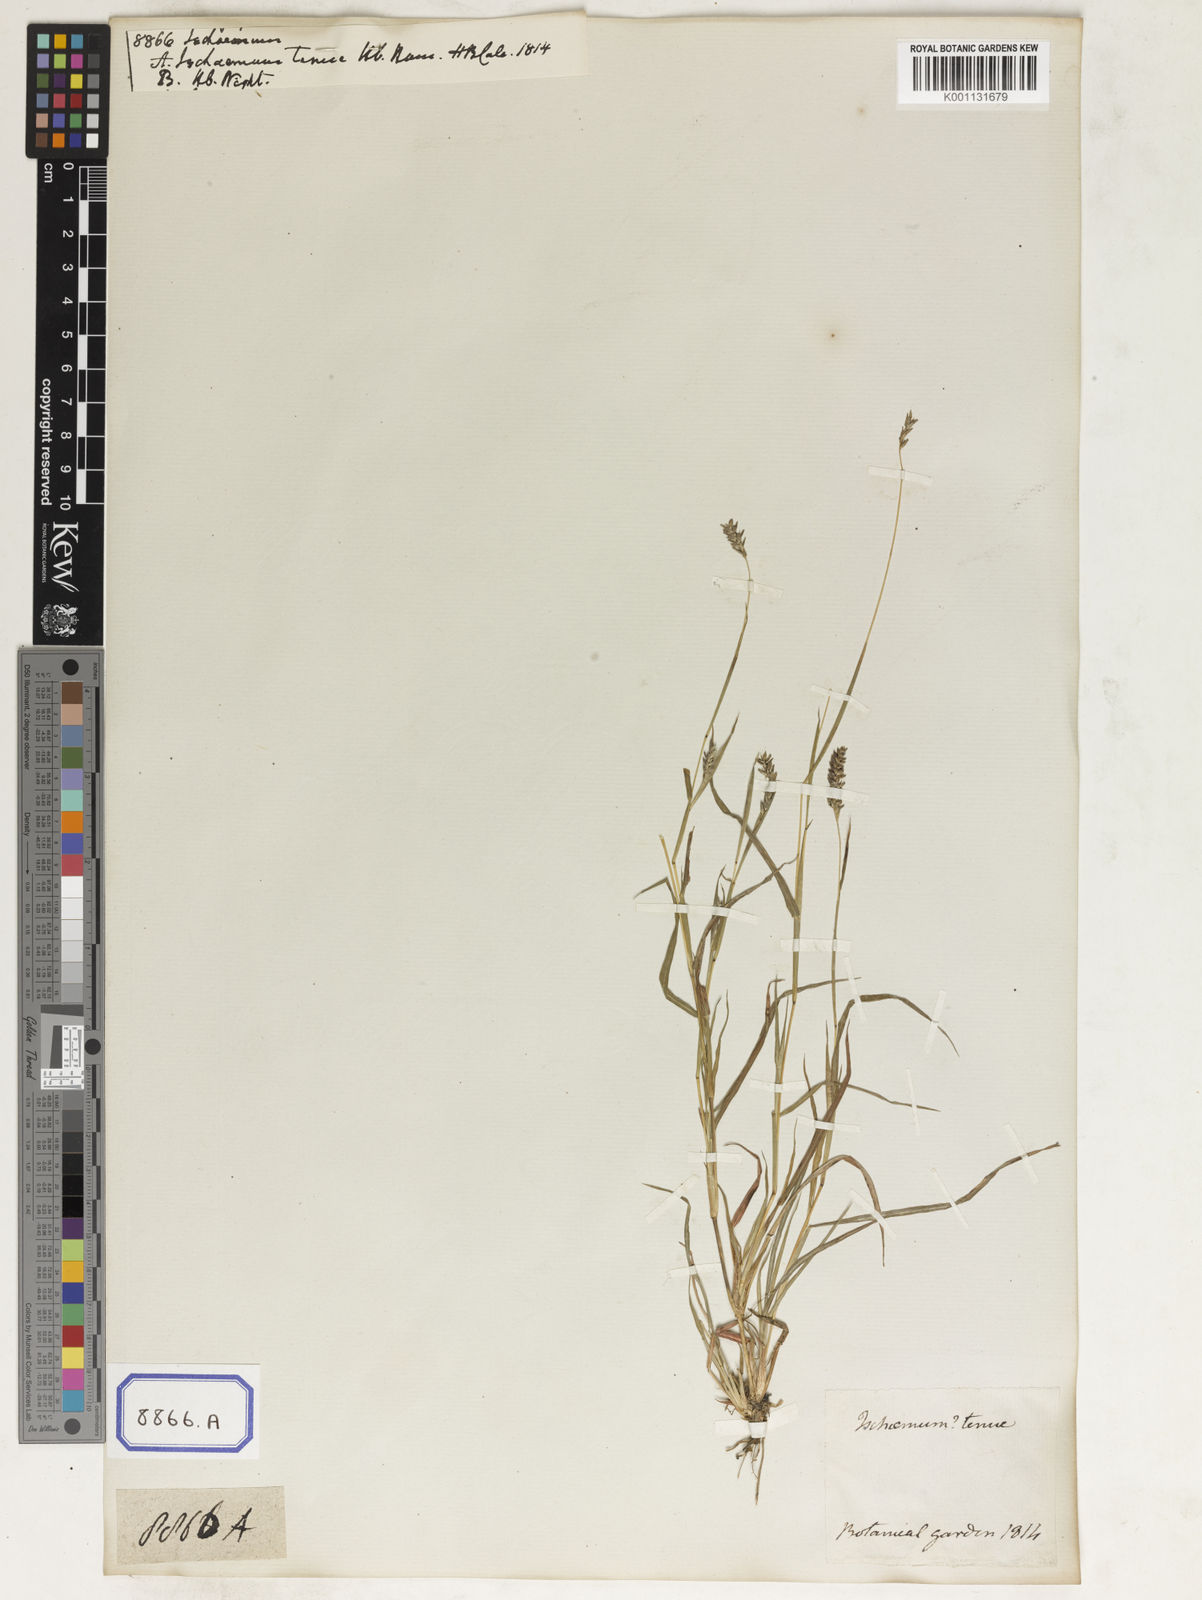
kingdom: Plantae
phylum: Tracheophyta
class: Liliopsida
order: Poales
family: Poaceae
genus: Ischaemum
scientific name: Ischaemum
